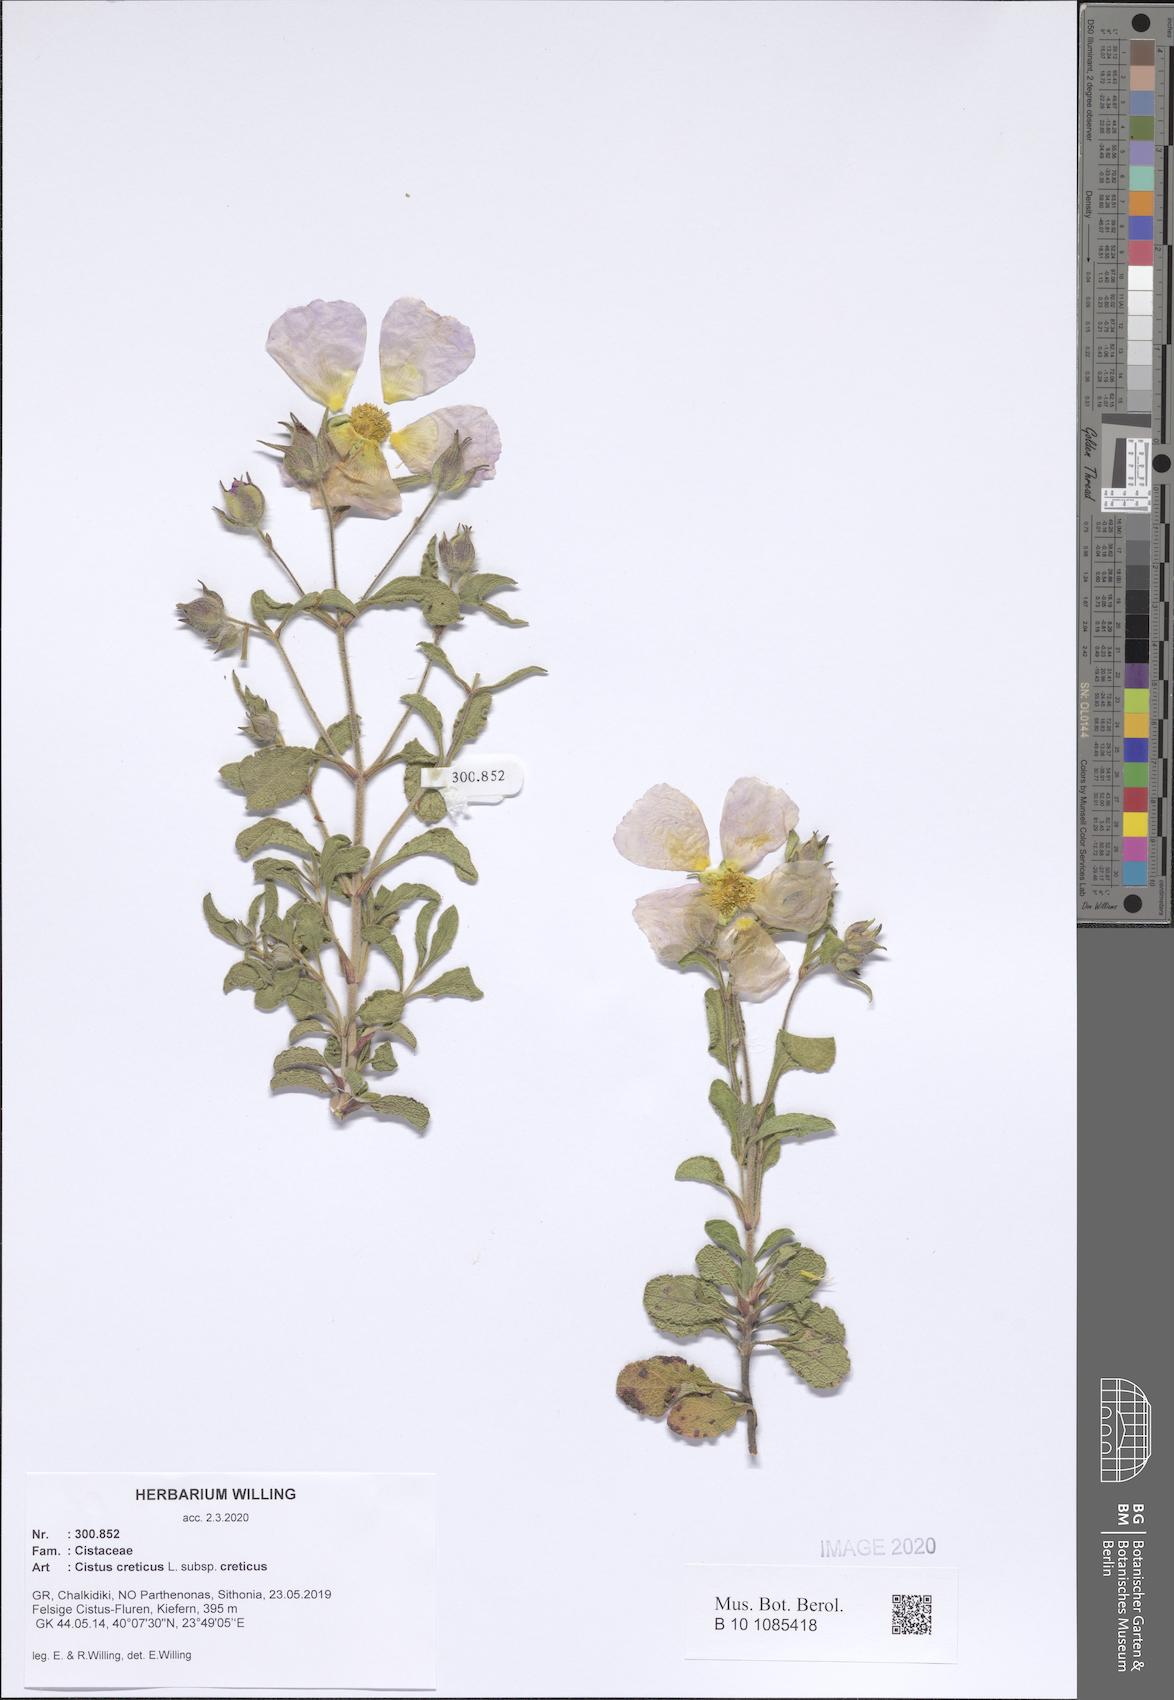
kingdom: Plantae
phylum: Tracheophyta
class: Magnoliopsida
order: Malvales
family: Cistaceae
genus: Cistus
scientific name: Cistus creticus
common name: Cretan rockrose
